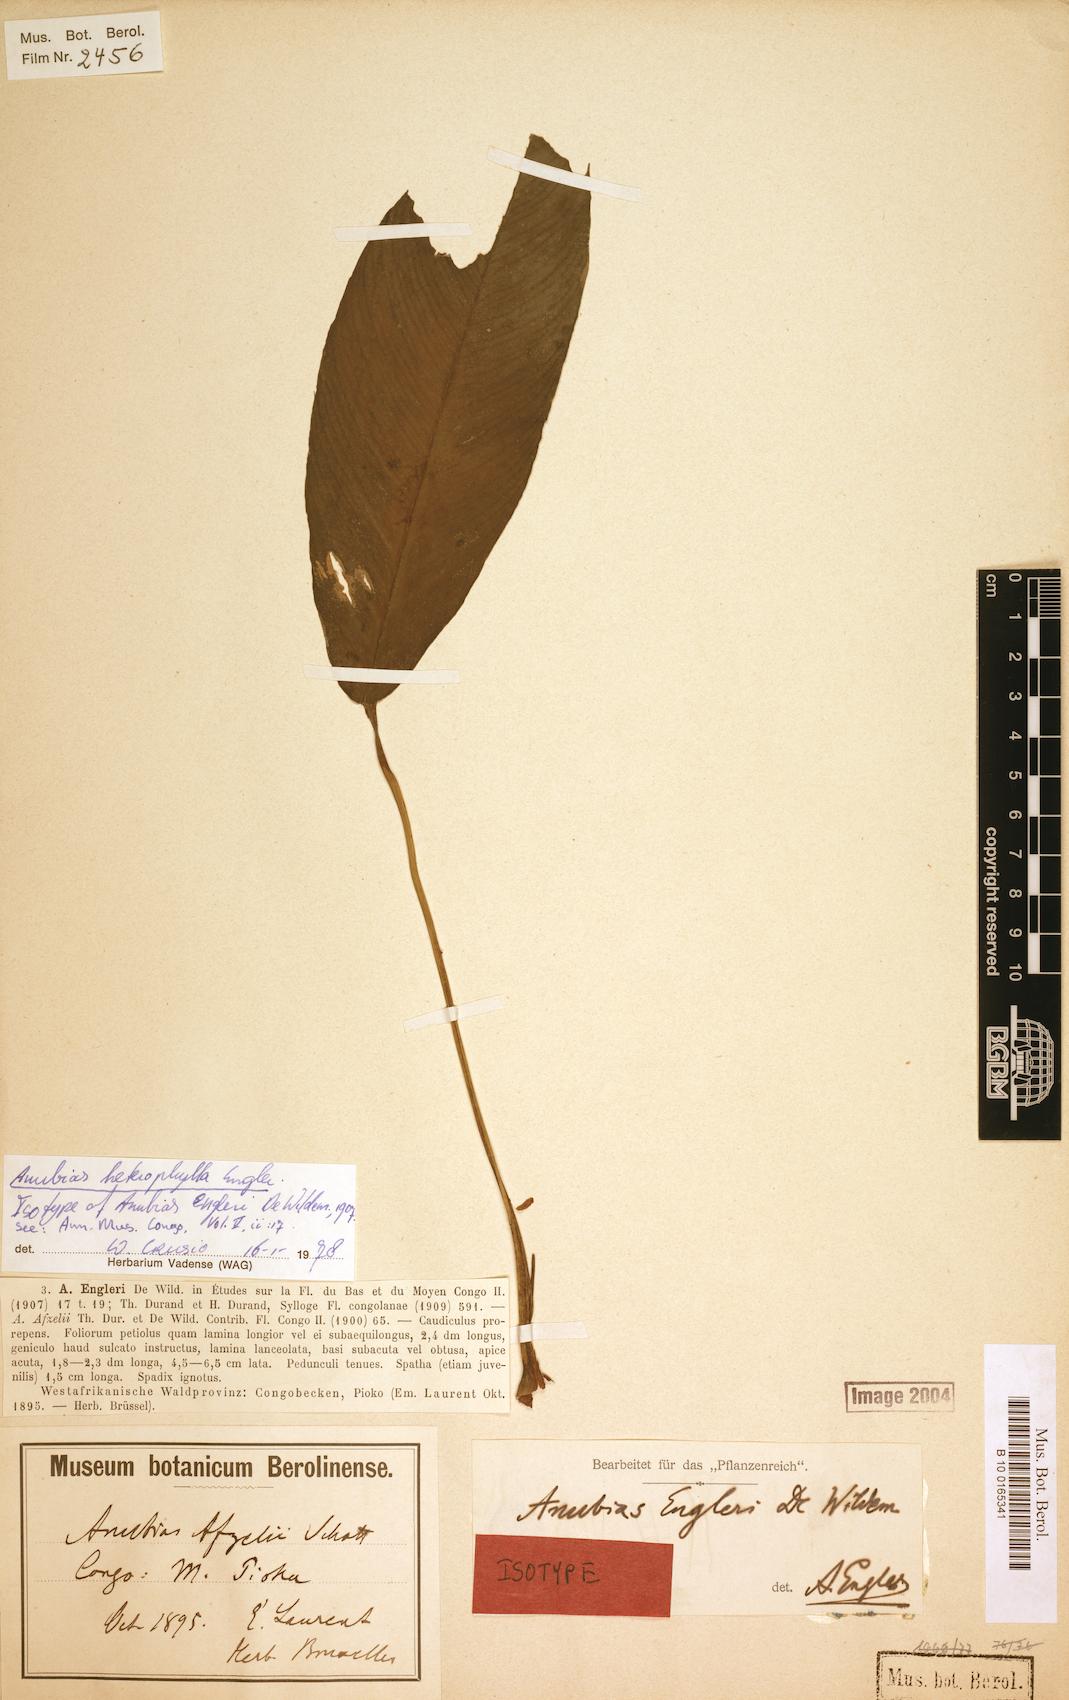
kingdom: Plantae
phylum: Tracheophyta
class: Liliopsida
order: Alismatales
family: Araceae
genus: Anubias
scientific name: Anubias heterophylla
